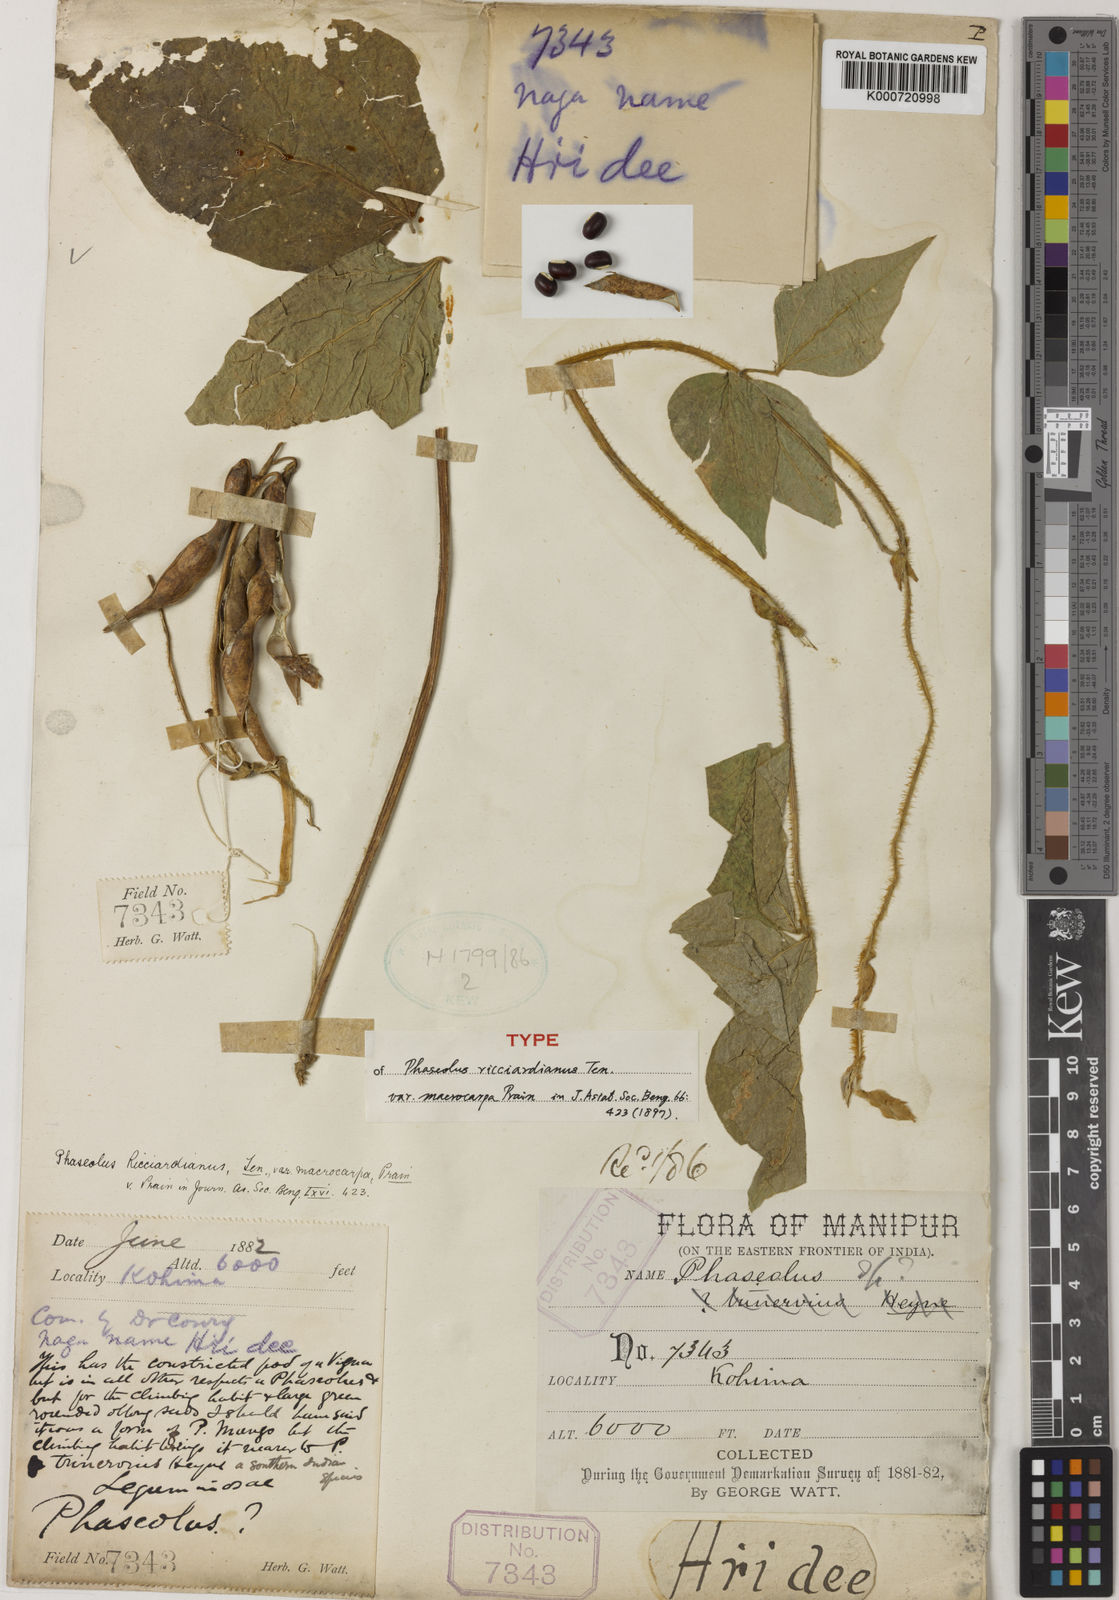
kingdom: Plantae
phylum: Tracheophyta
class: Magnoliopsida
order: Fabales
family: Fabaceae
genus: Vigna
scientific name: Vigna umbellata
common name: Oriental-bean
